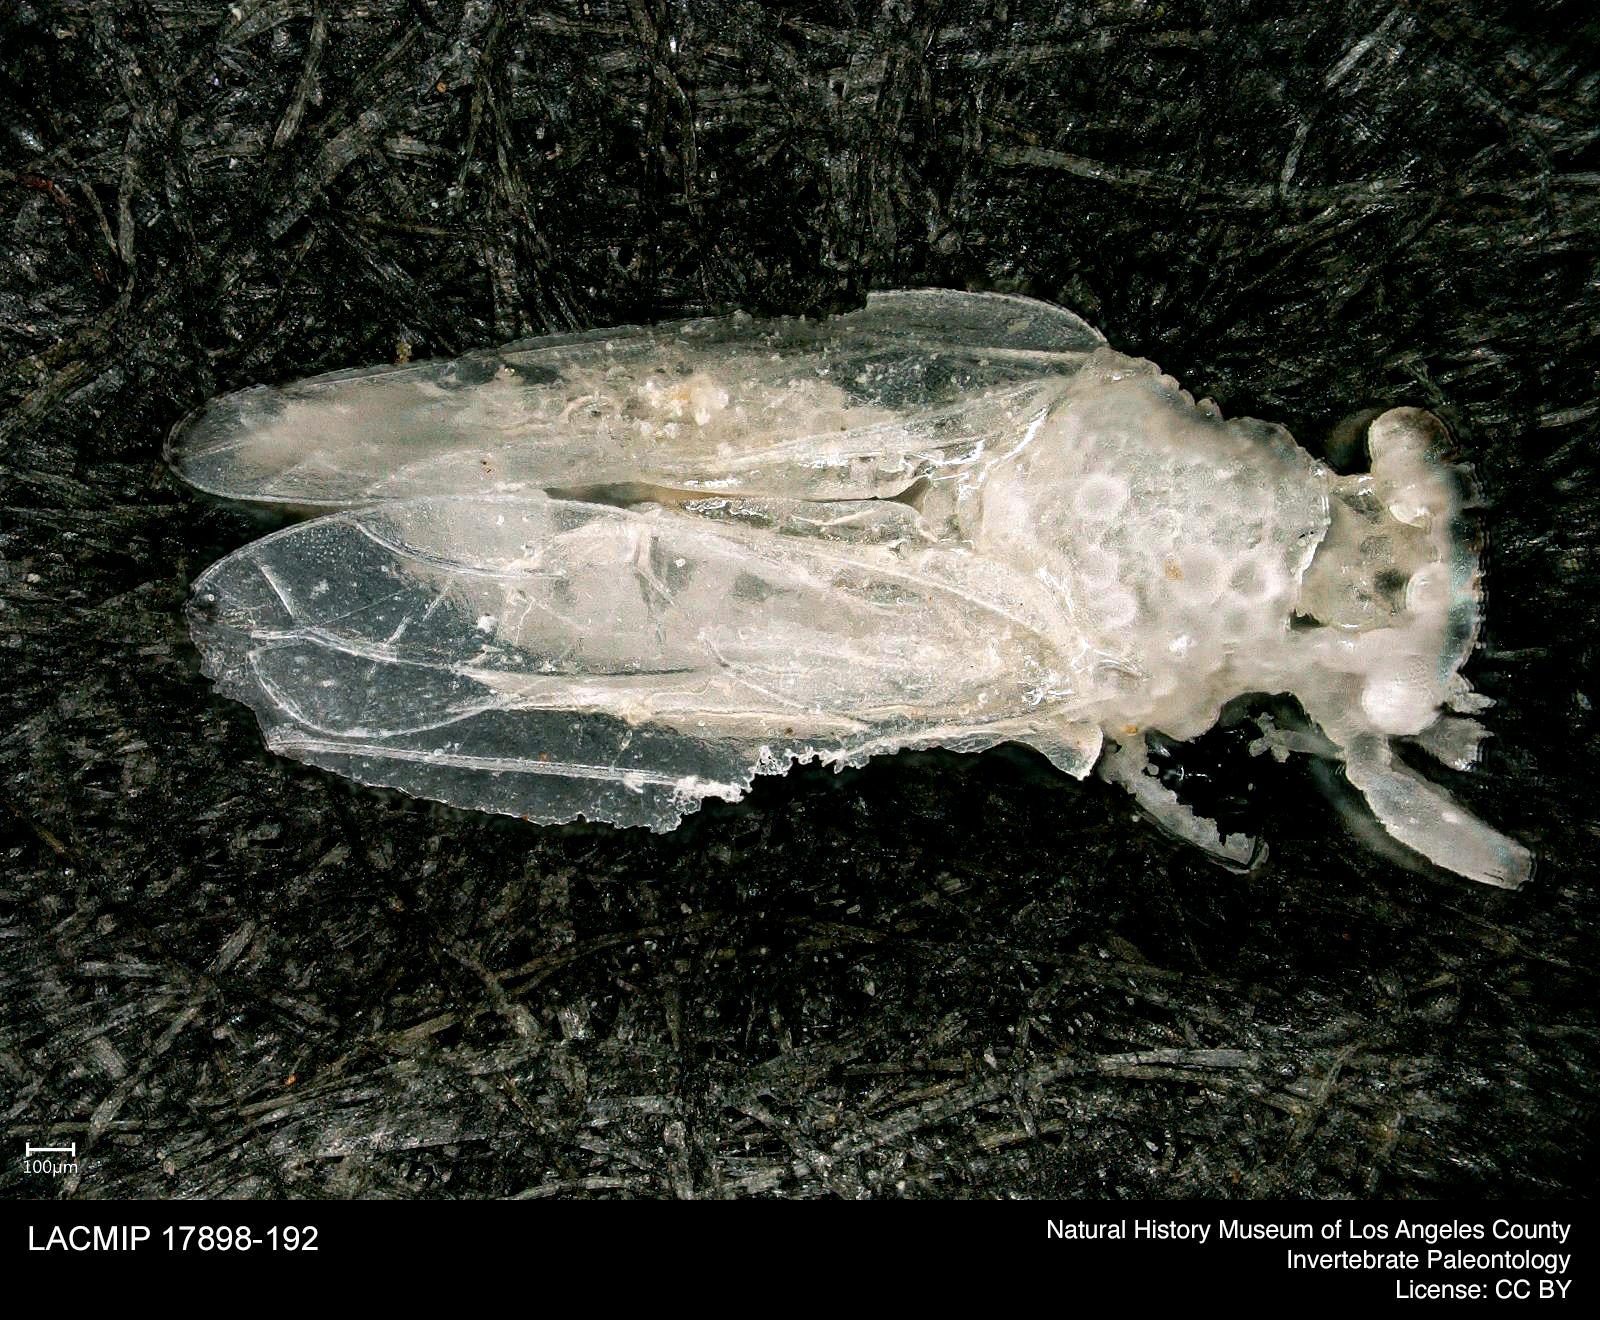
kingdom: Animalia
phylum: Arthropoda
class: Insecta
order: Diptera
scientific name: Diptera
